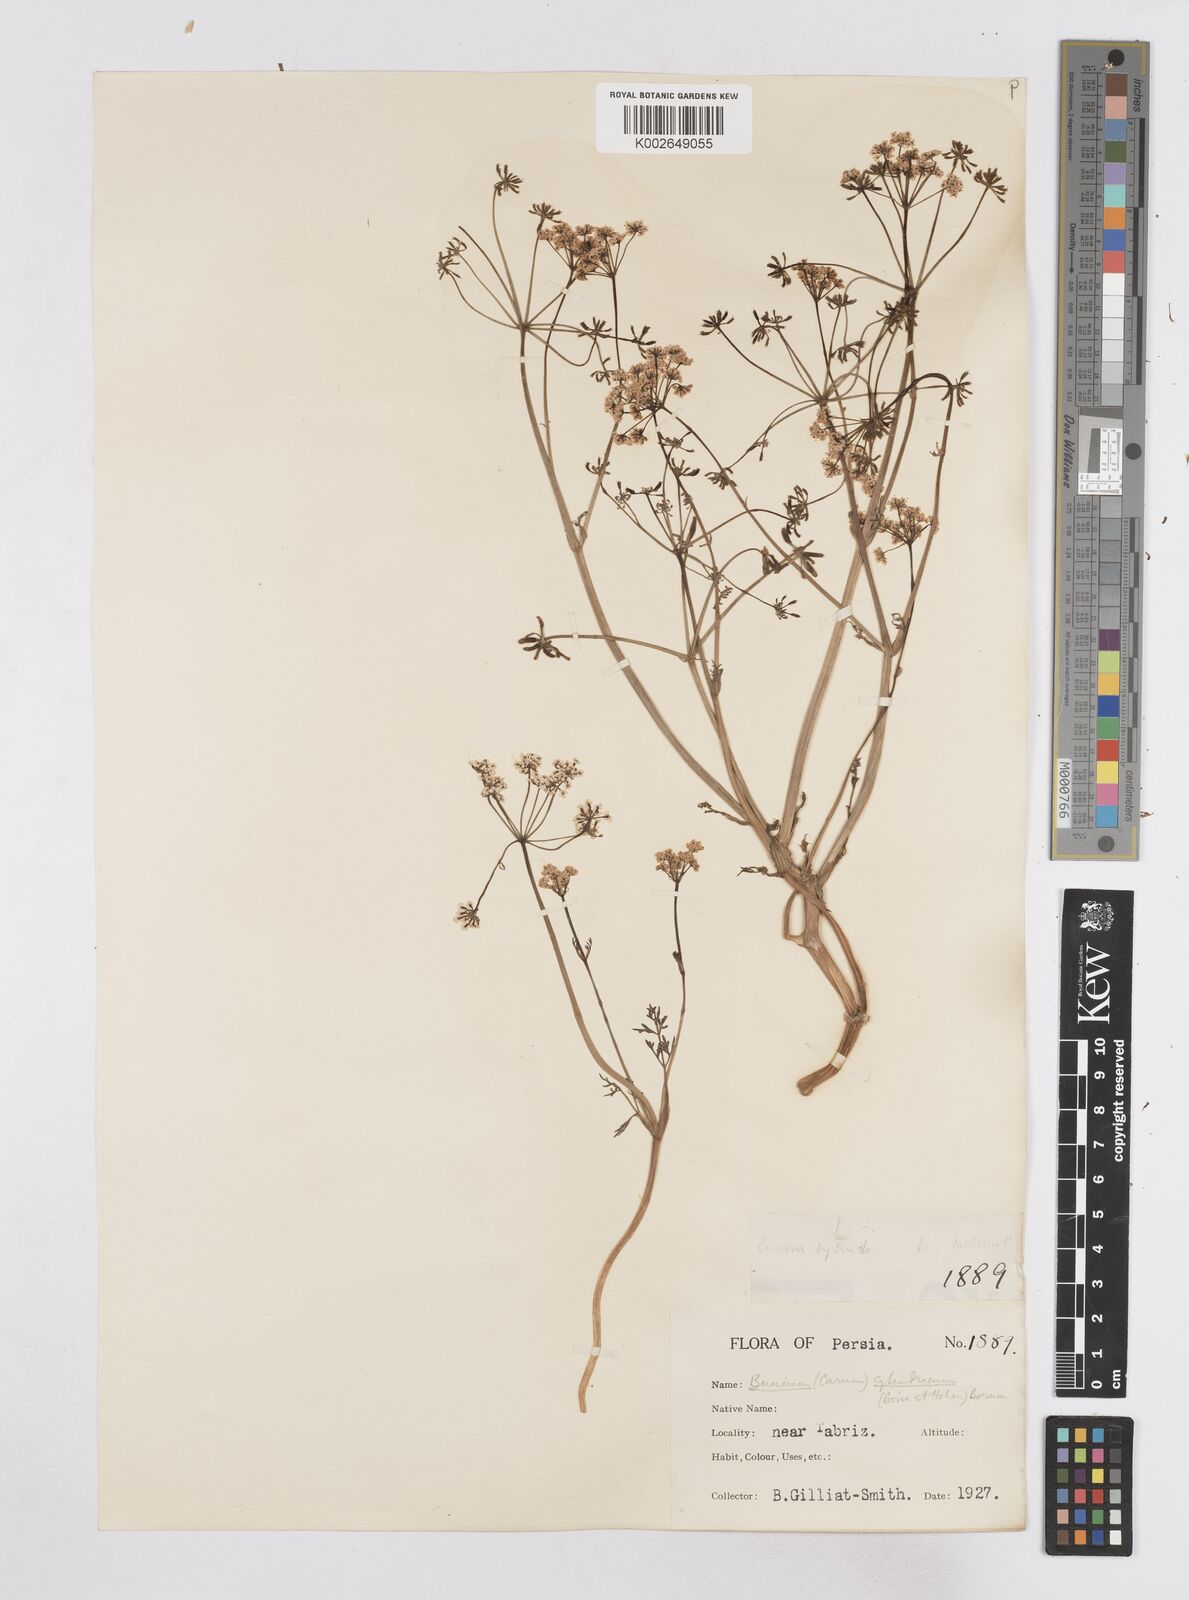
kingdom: Plantae
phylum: Tracheophyta
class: Magnoliopsida
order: Apiales
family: Apiaceae
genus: Elwendia
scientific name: Elwendia cylindrica
